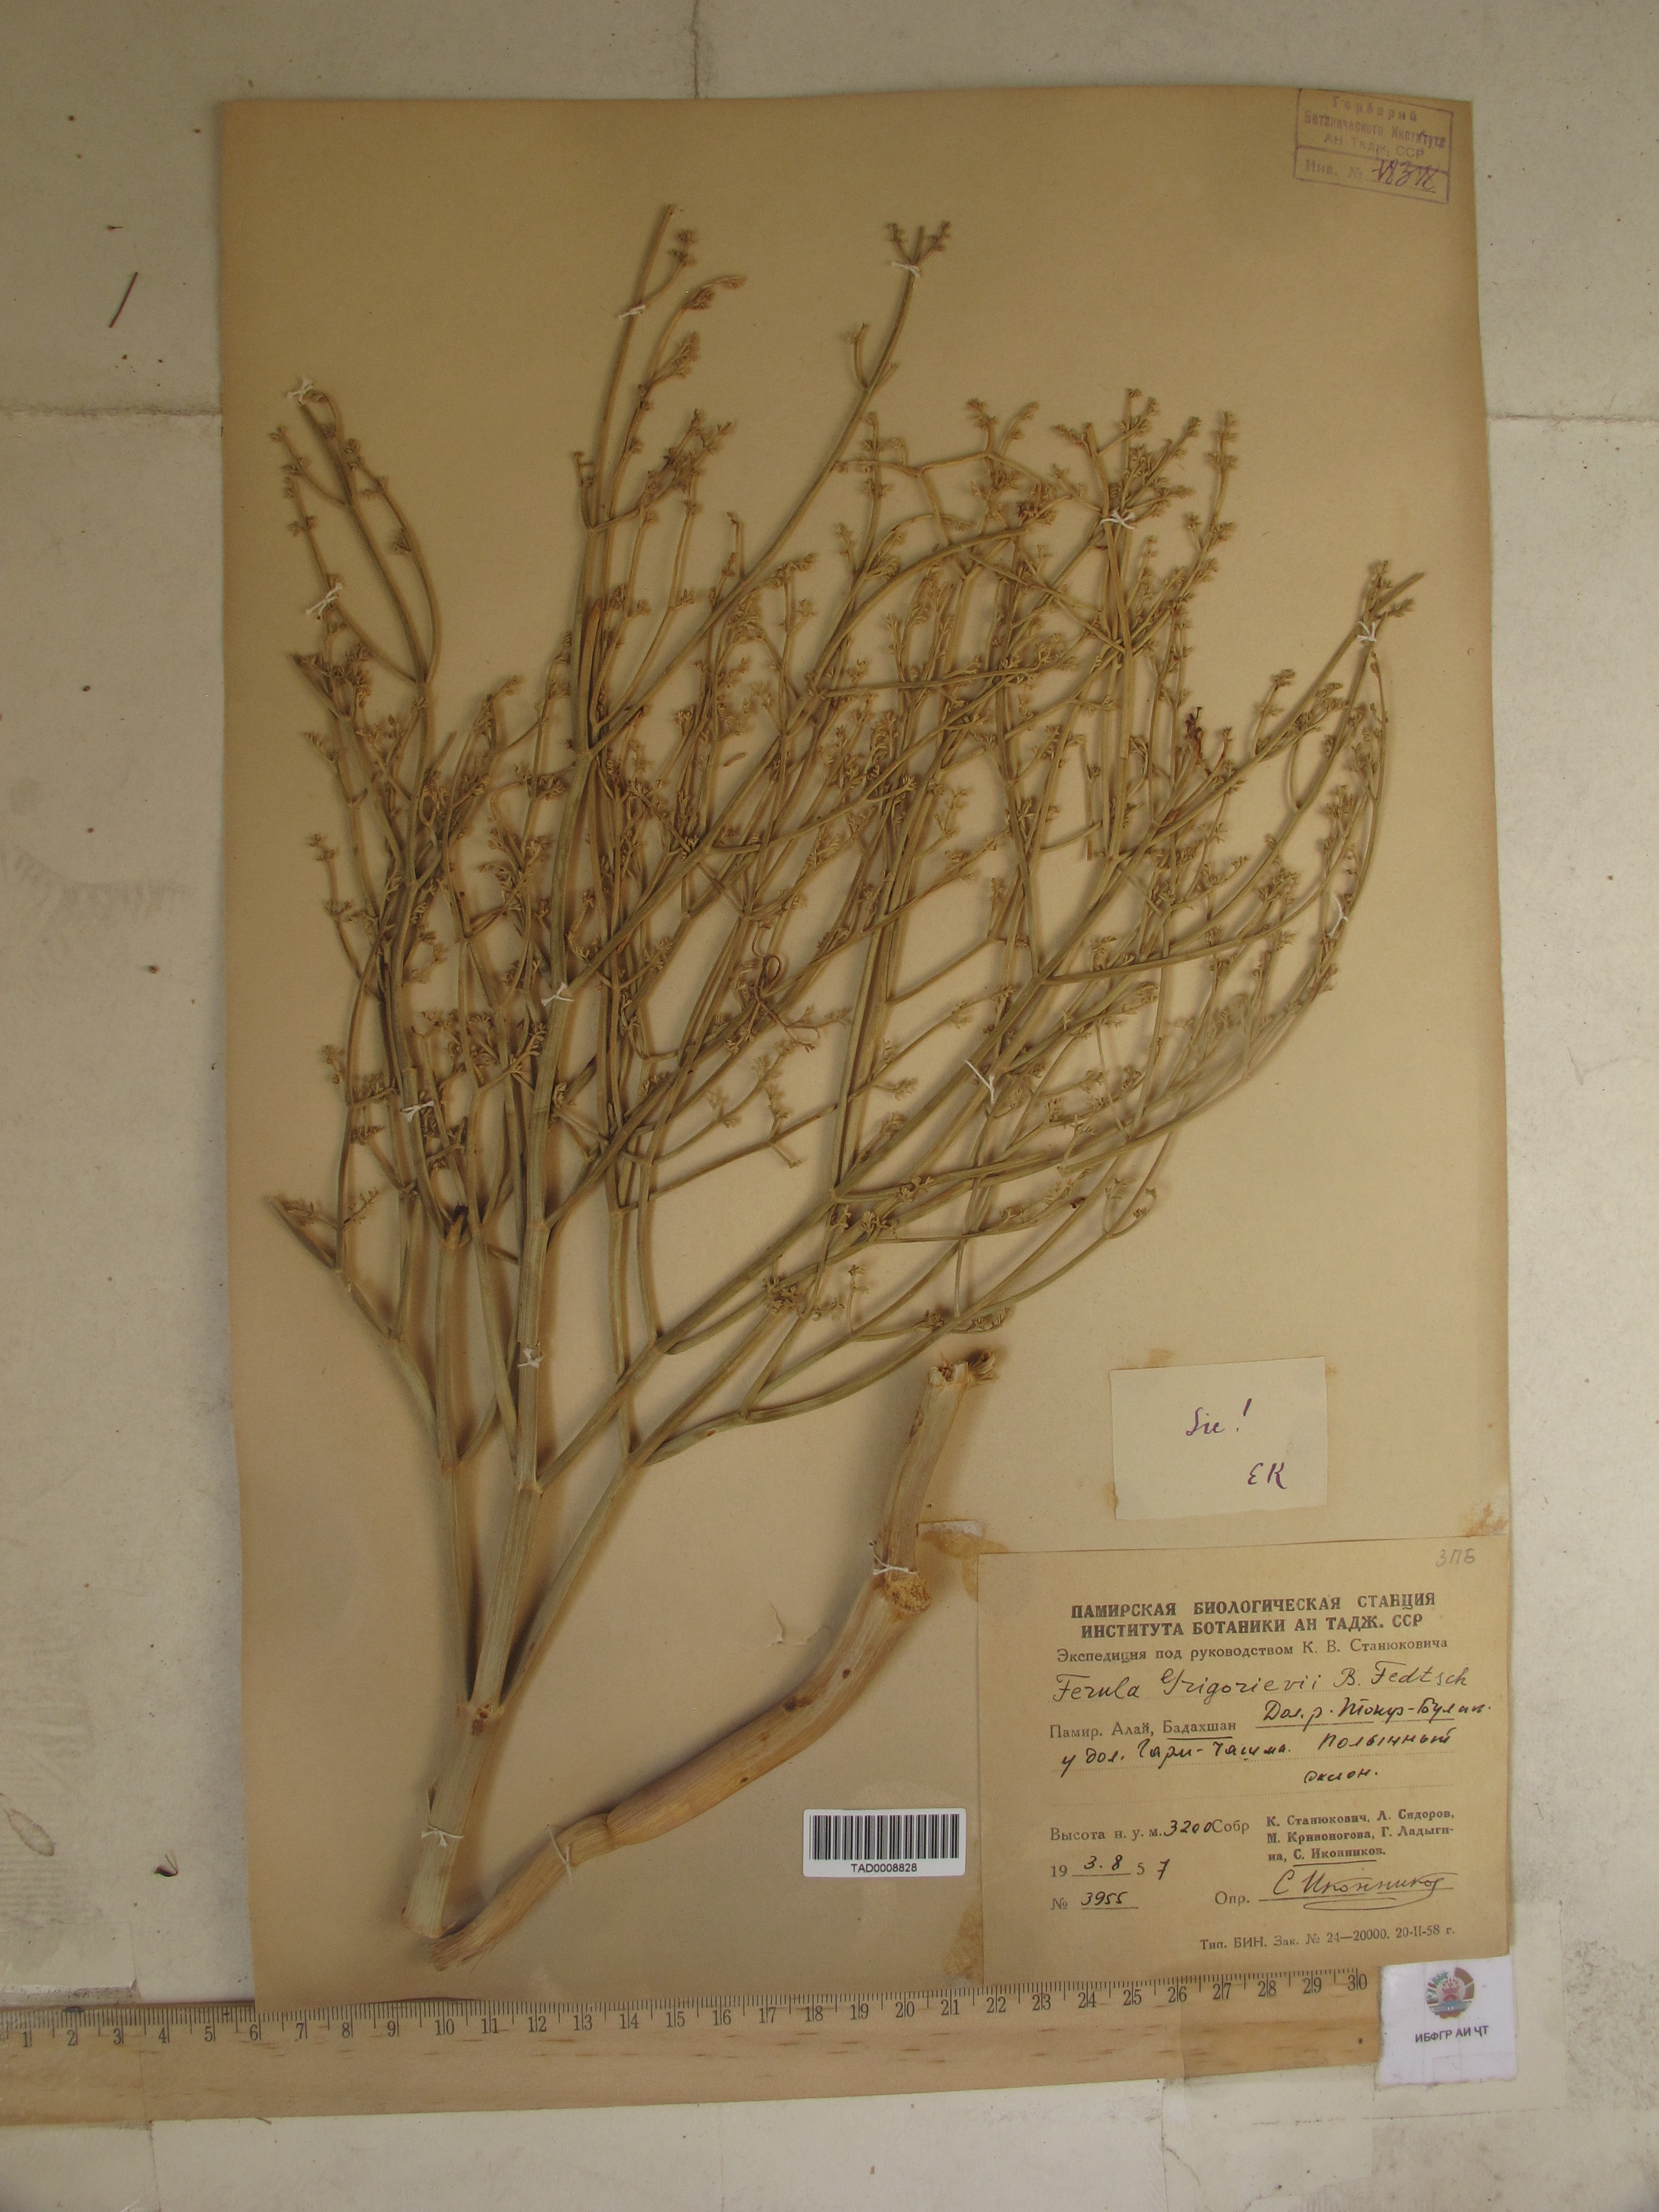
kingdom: Plantae
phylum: Tracheophyta
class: Magnoliopsida
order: Apiales
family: Apiaceae
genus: Ferula
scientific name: Ferula grigoriewii
